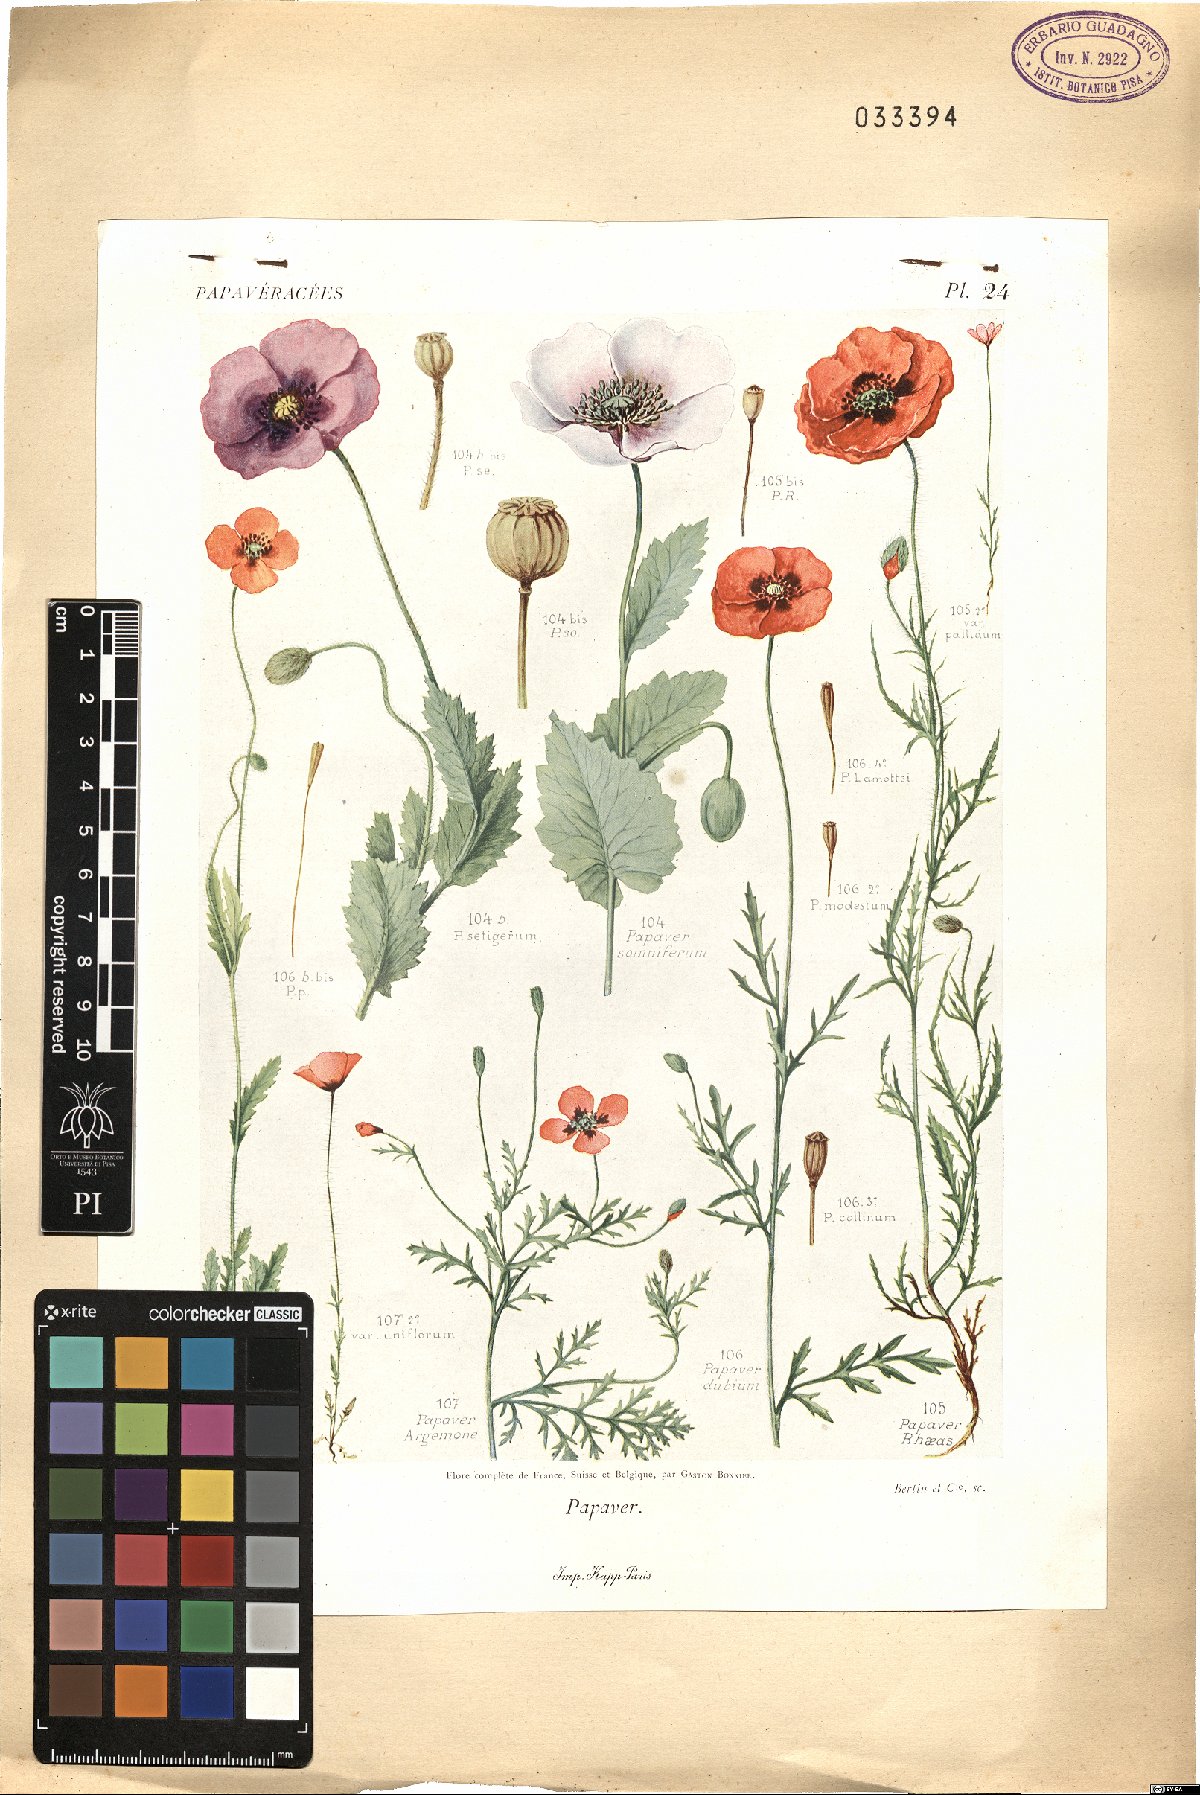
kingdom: Plantae
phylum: Tracheophyta
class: Magnoliopsida
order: Ranunculales
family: Papaveraceae
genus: Papaver
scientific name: Papaver
